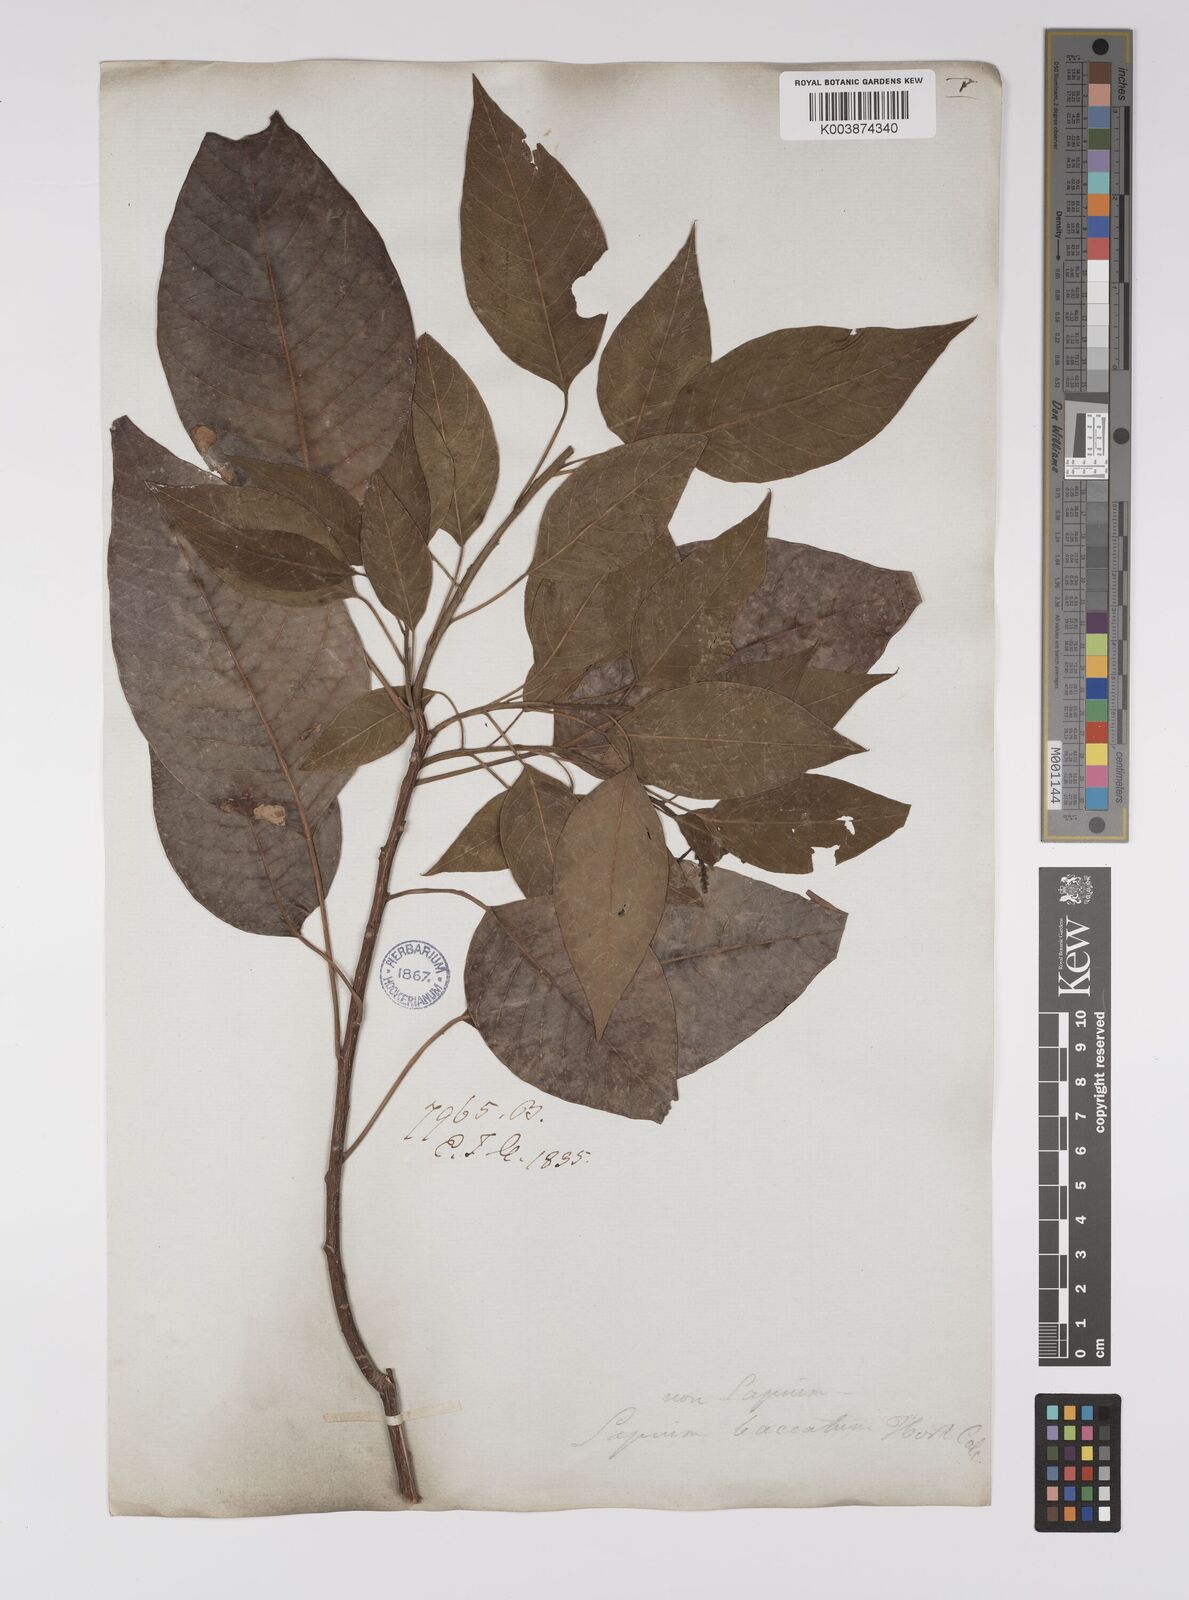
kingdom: Plantae
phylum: Tracheophyta
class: Magnoliopsida
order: Malpighiales
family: Euphorbiaceae
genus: Balakata
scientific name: Balakata baccata
